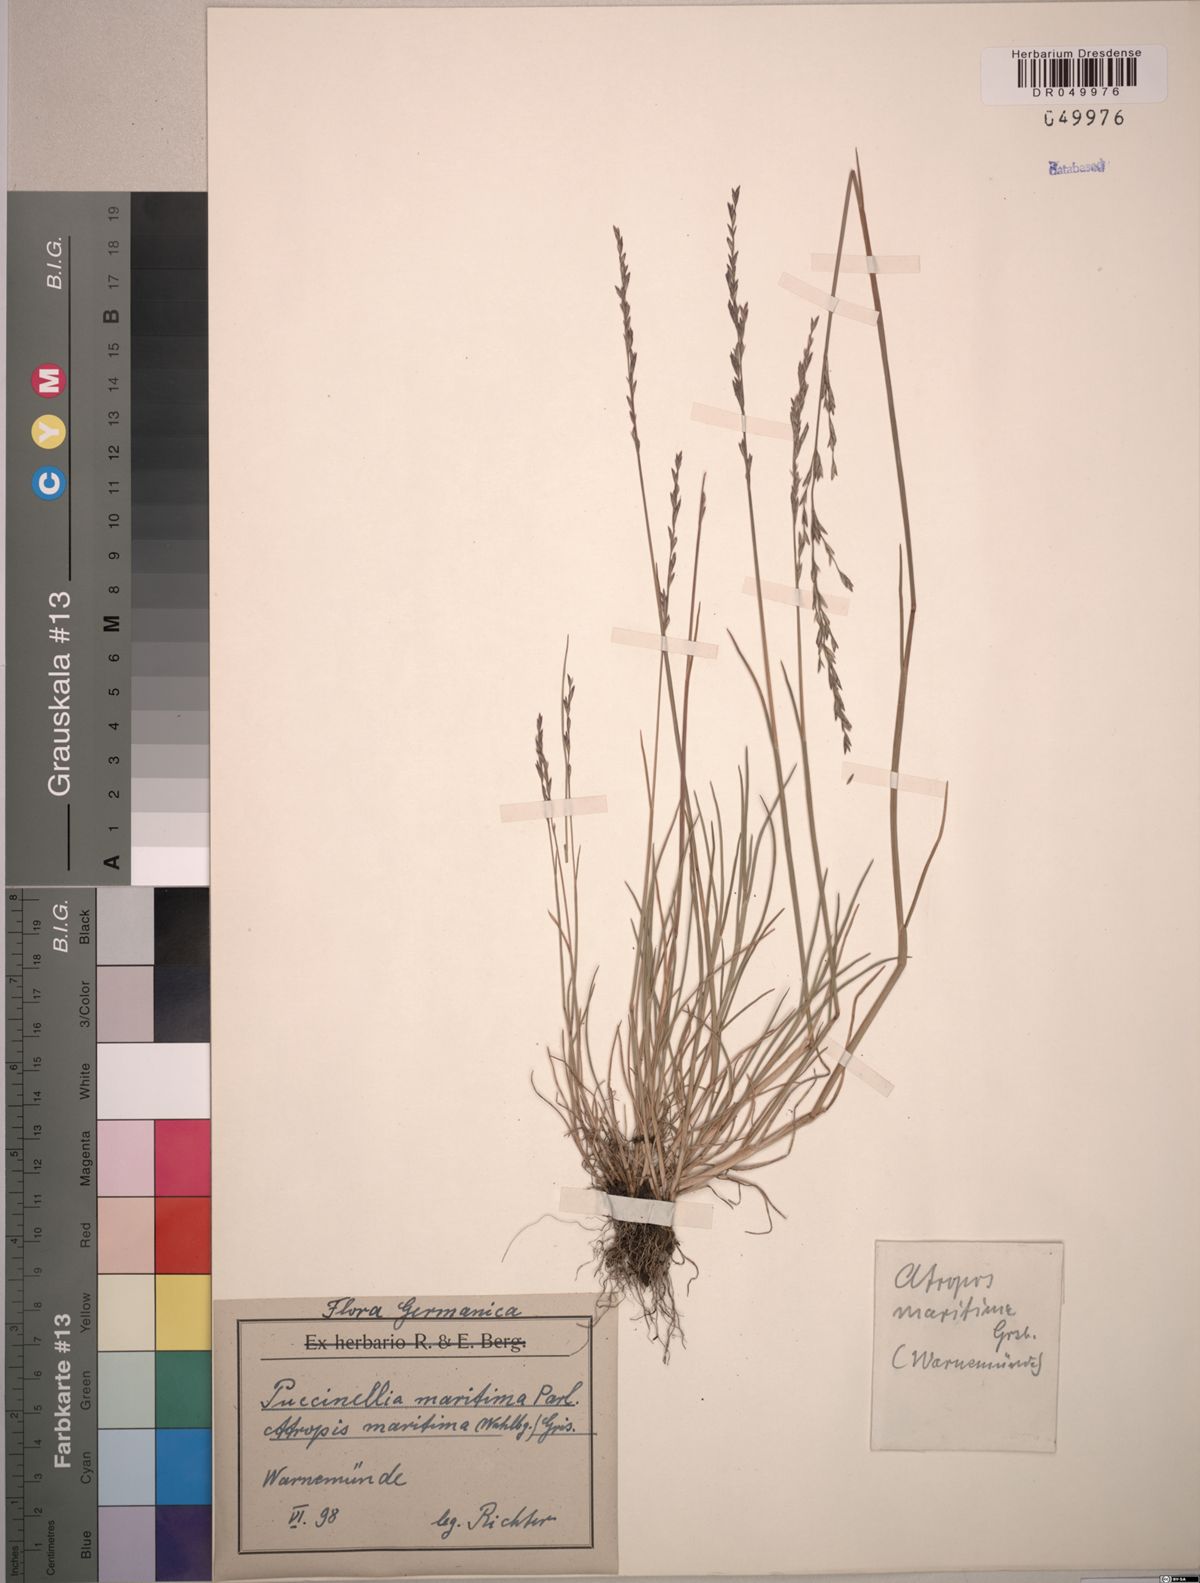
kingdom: Plantae
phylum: Tracheophyta
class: Liliopsida
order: Poales
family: Poaceae
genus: Puccinellia
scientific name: Puccinellia maritima
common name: Common saltmarsh grass
